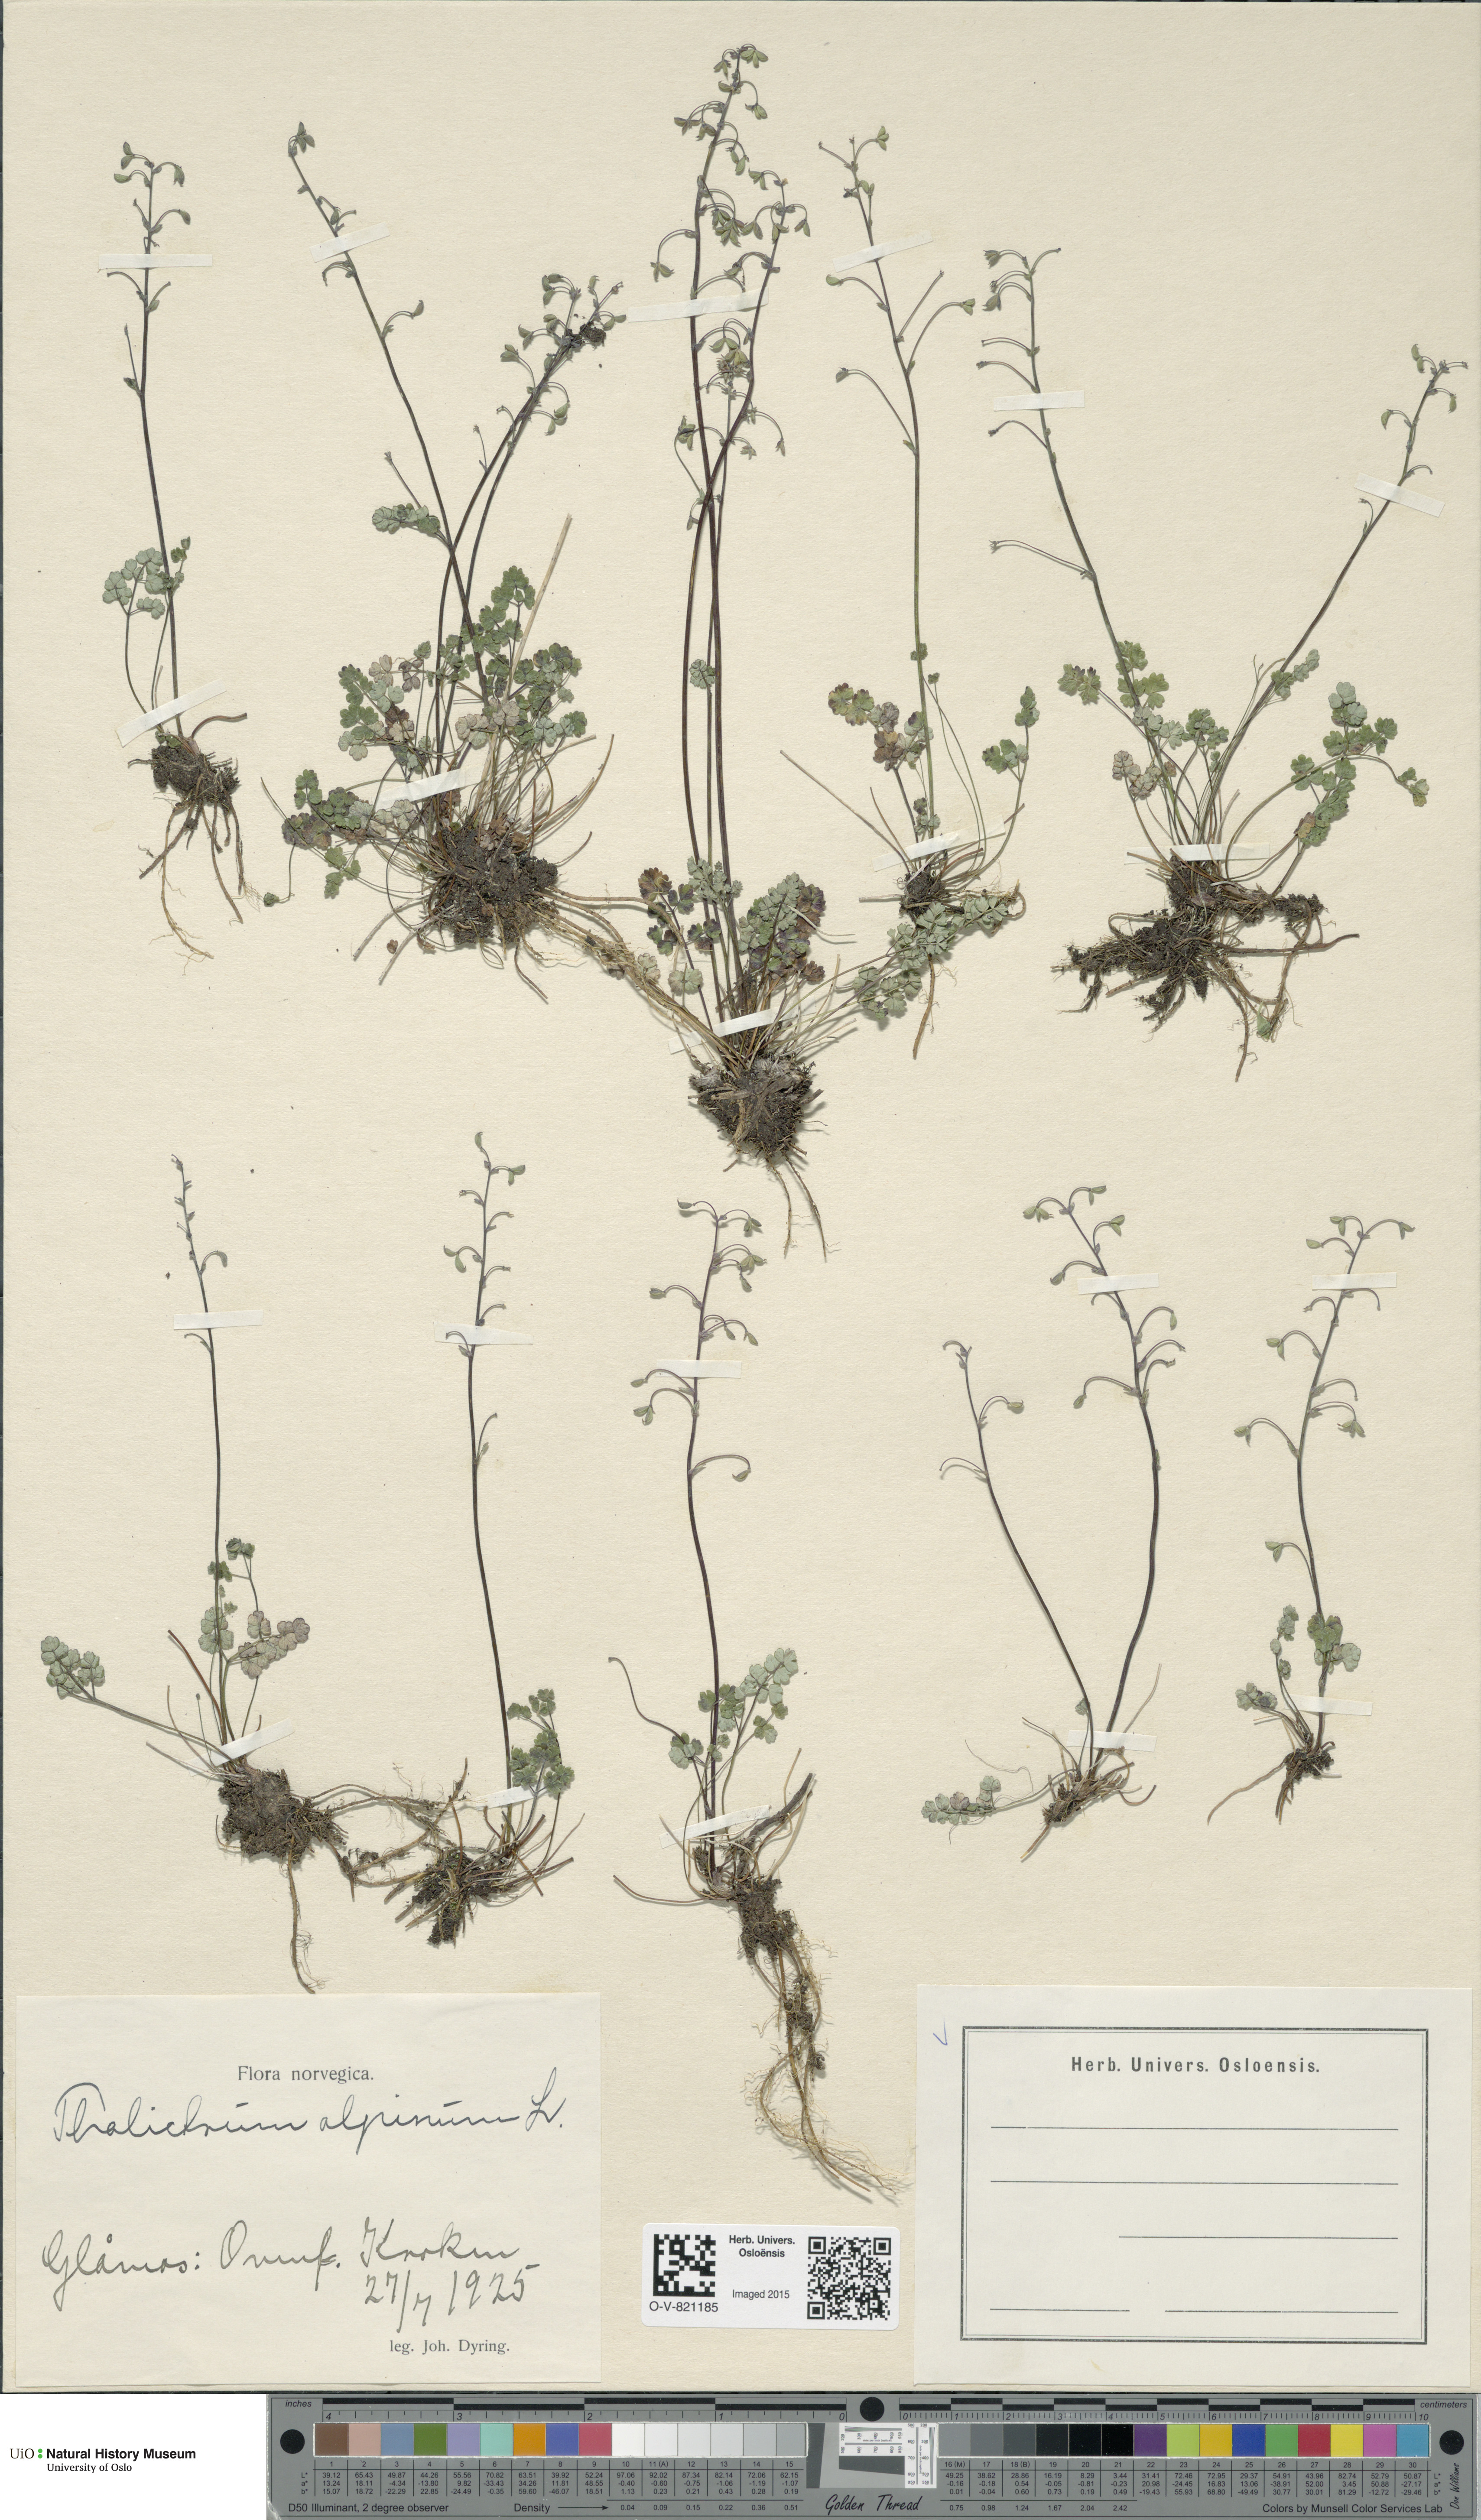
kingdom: Plantae
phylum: Tracheophyta
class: Magnoliopsida
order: Ranunculales
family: Ranunculaceae
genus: Thalictrum
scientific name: Thalictrum alpinum
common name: Alpine meadow-rue
